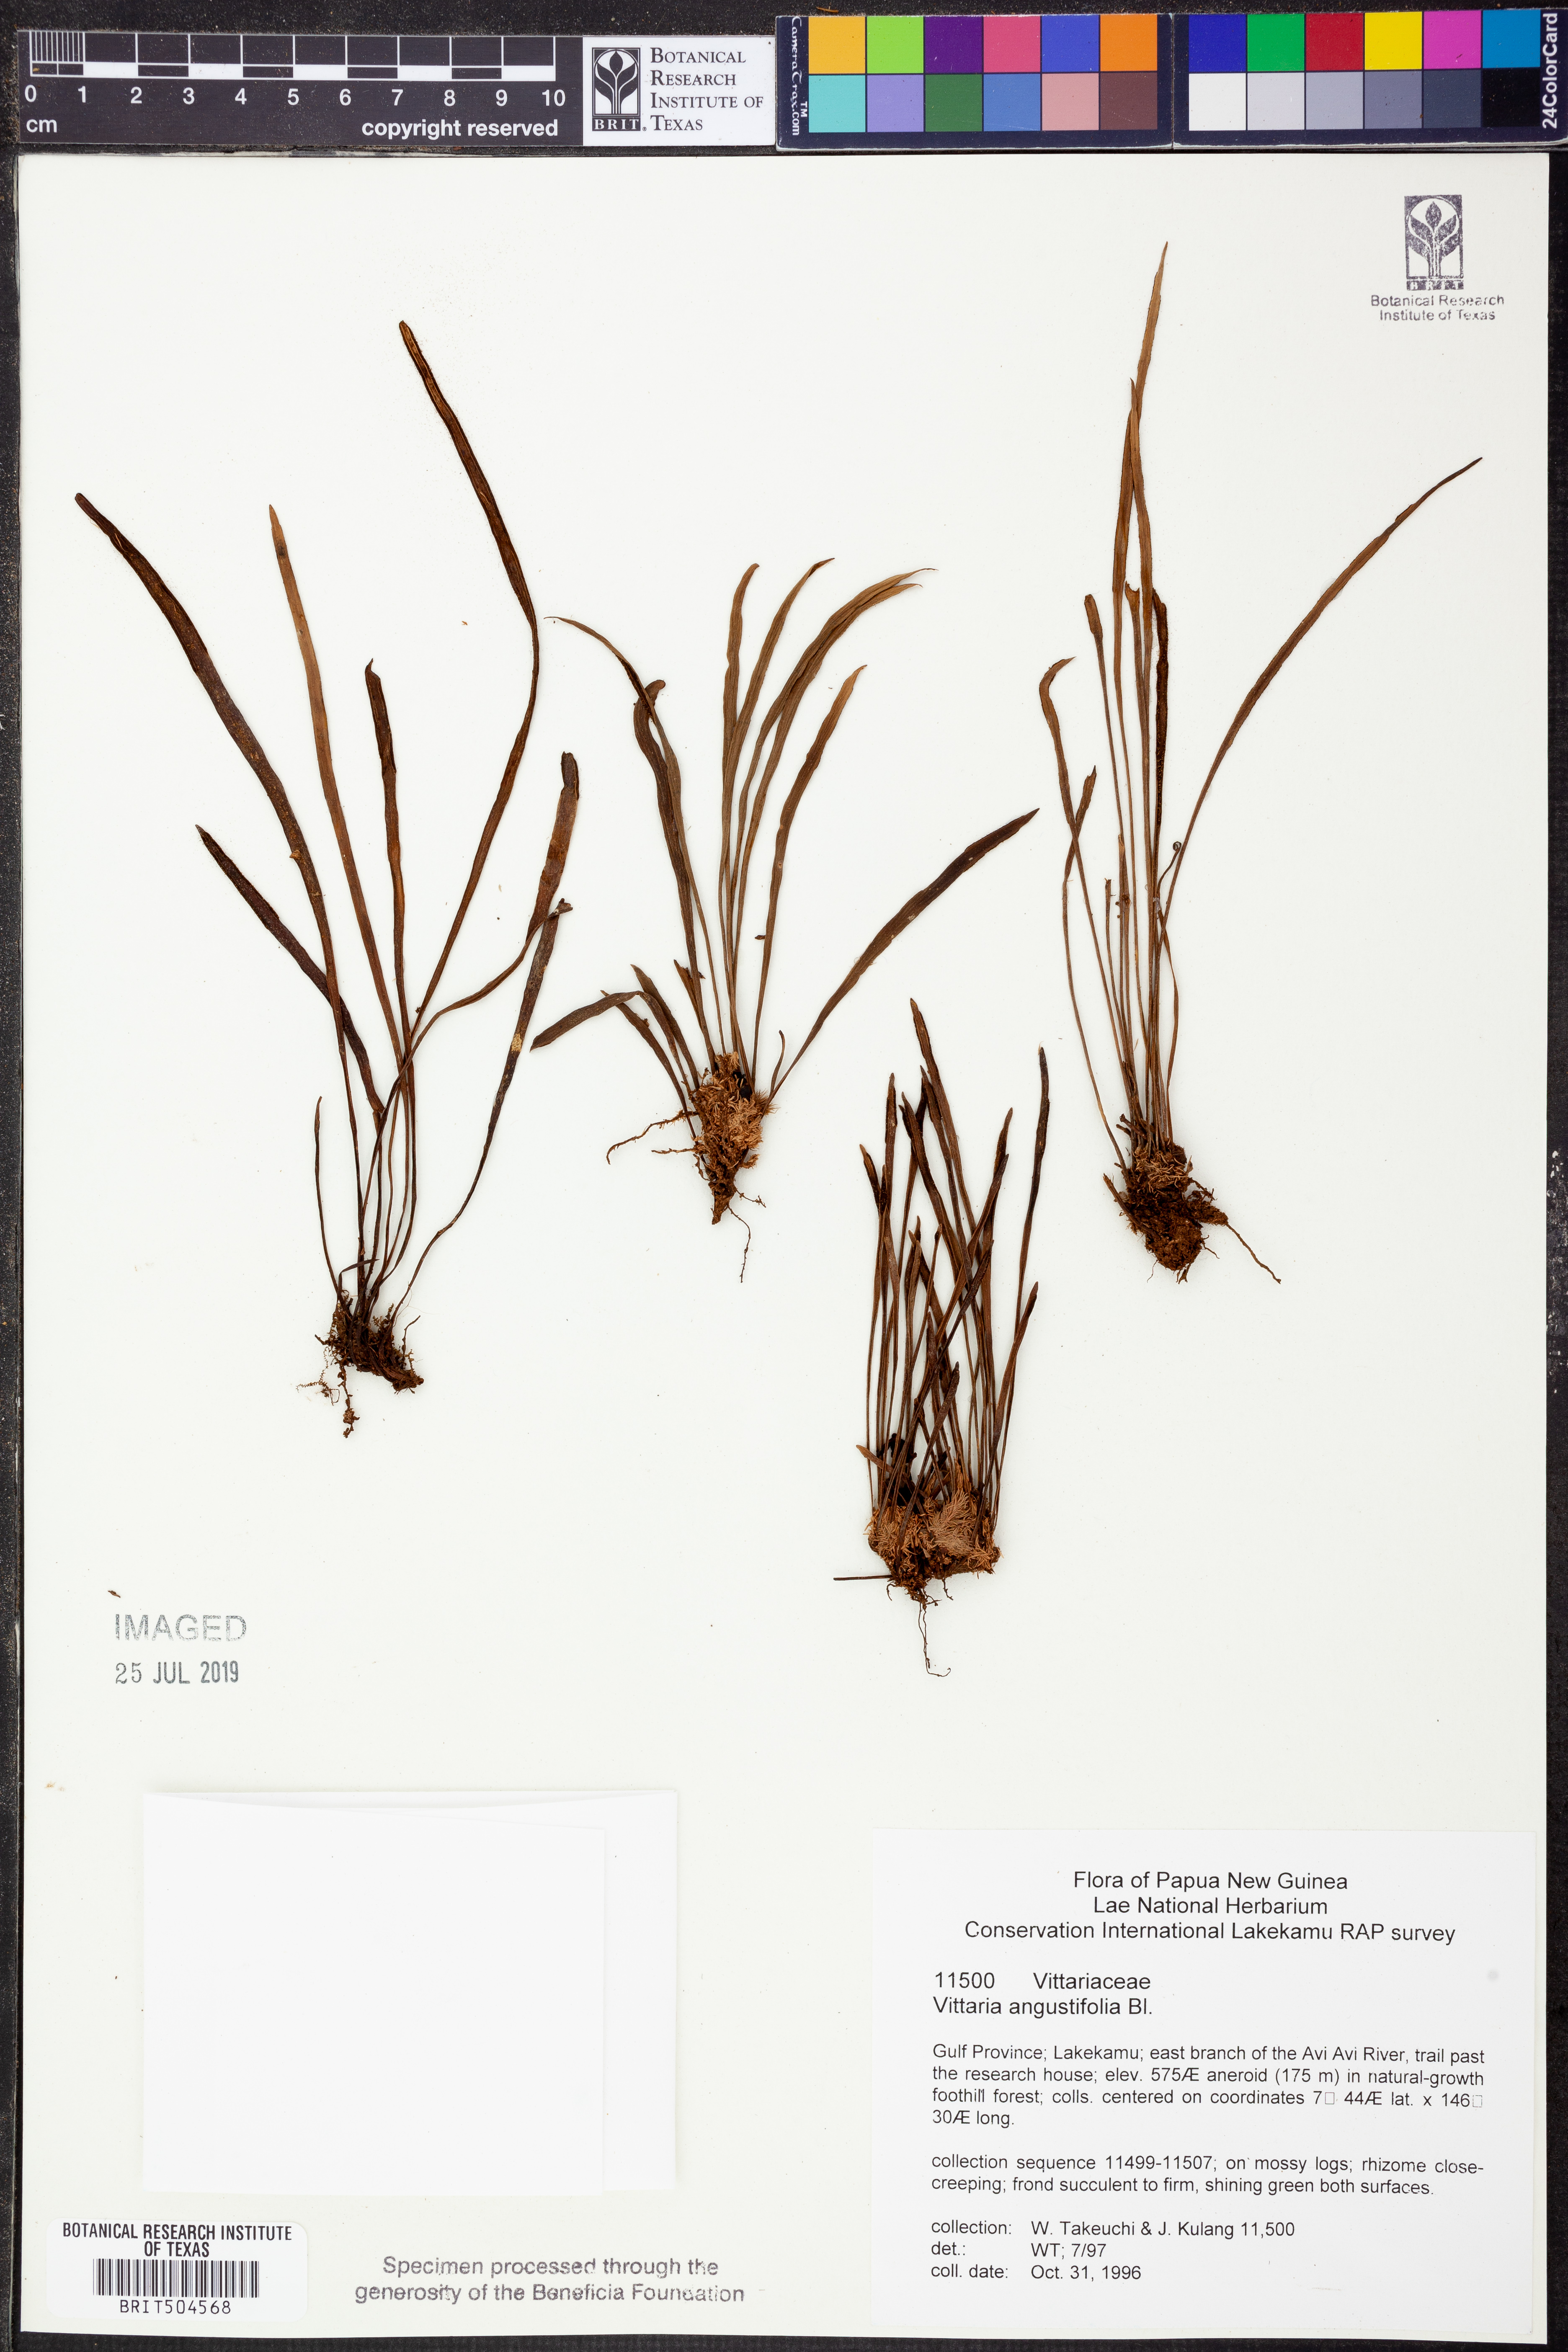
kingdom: Plantae
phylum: Tracheophyta
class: Polypodiopsida
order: Polypodiales
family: Pteridaceae
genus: Haplopteris
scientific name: Haplopteris angustifolia
